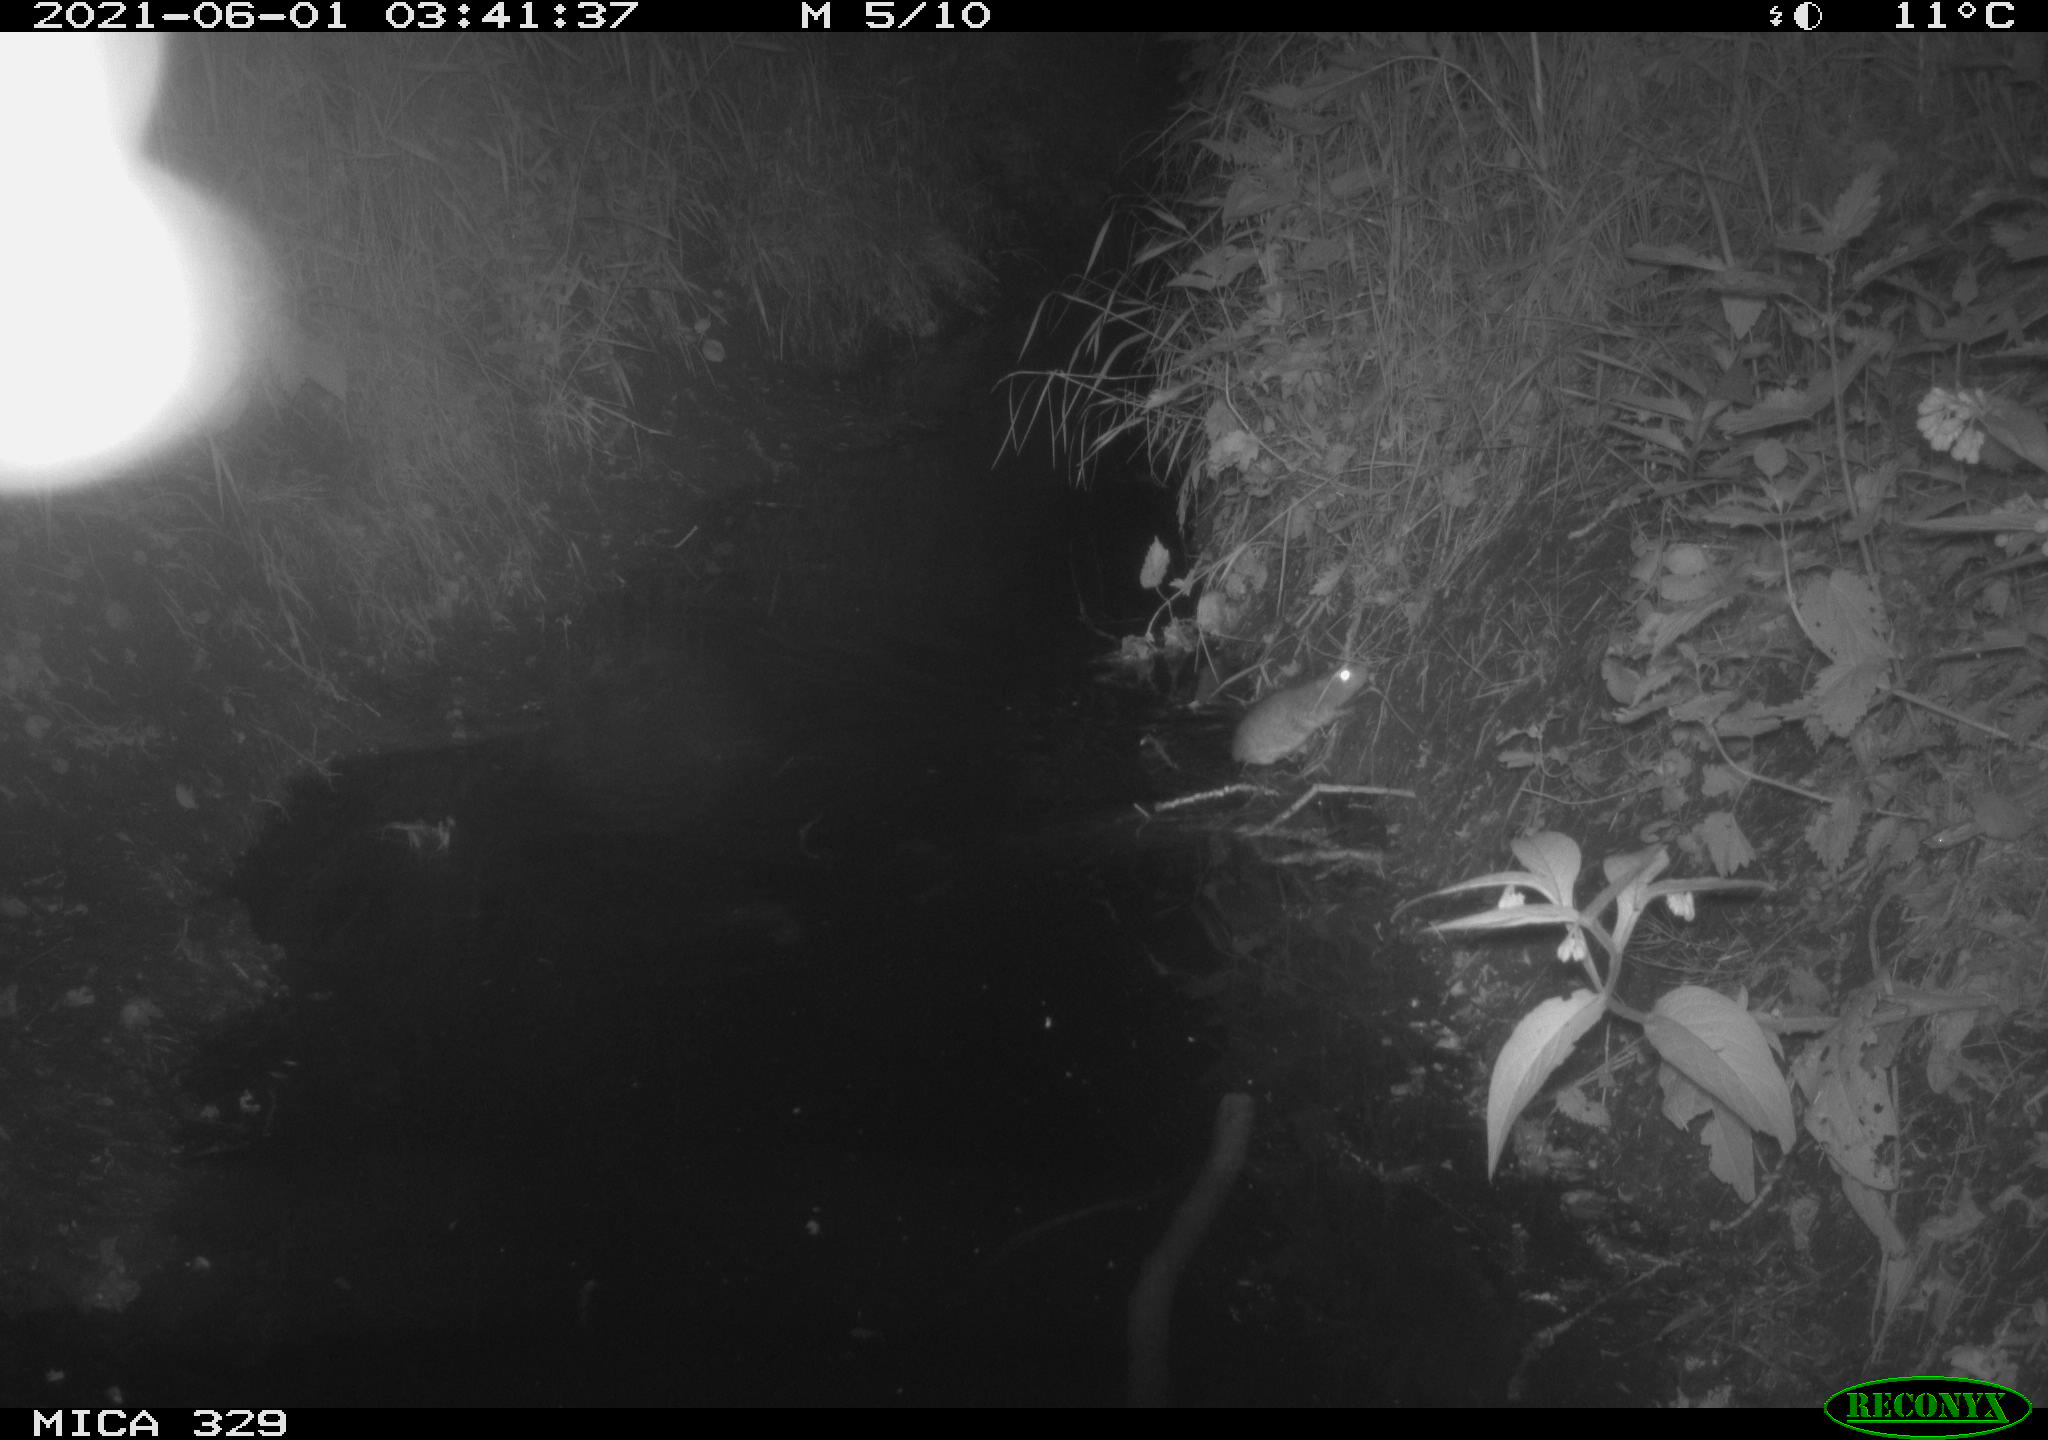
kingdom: Animalia
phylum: Chordata
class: Mammalia
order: Rodentia
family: Muridae
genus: Rattus
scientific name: Rattus norvegicus
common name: Brown rat
